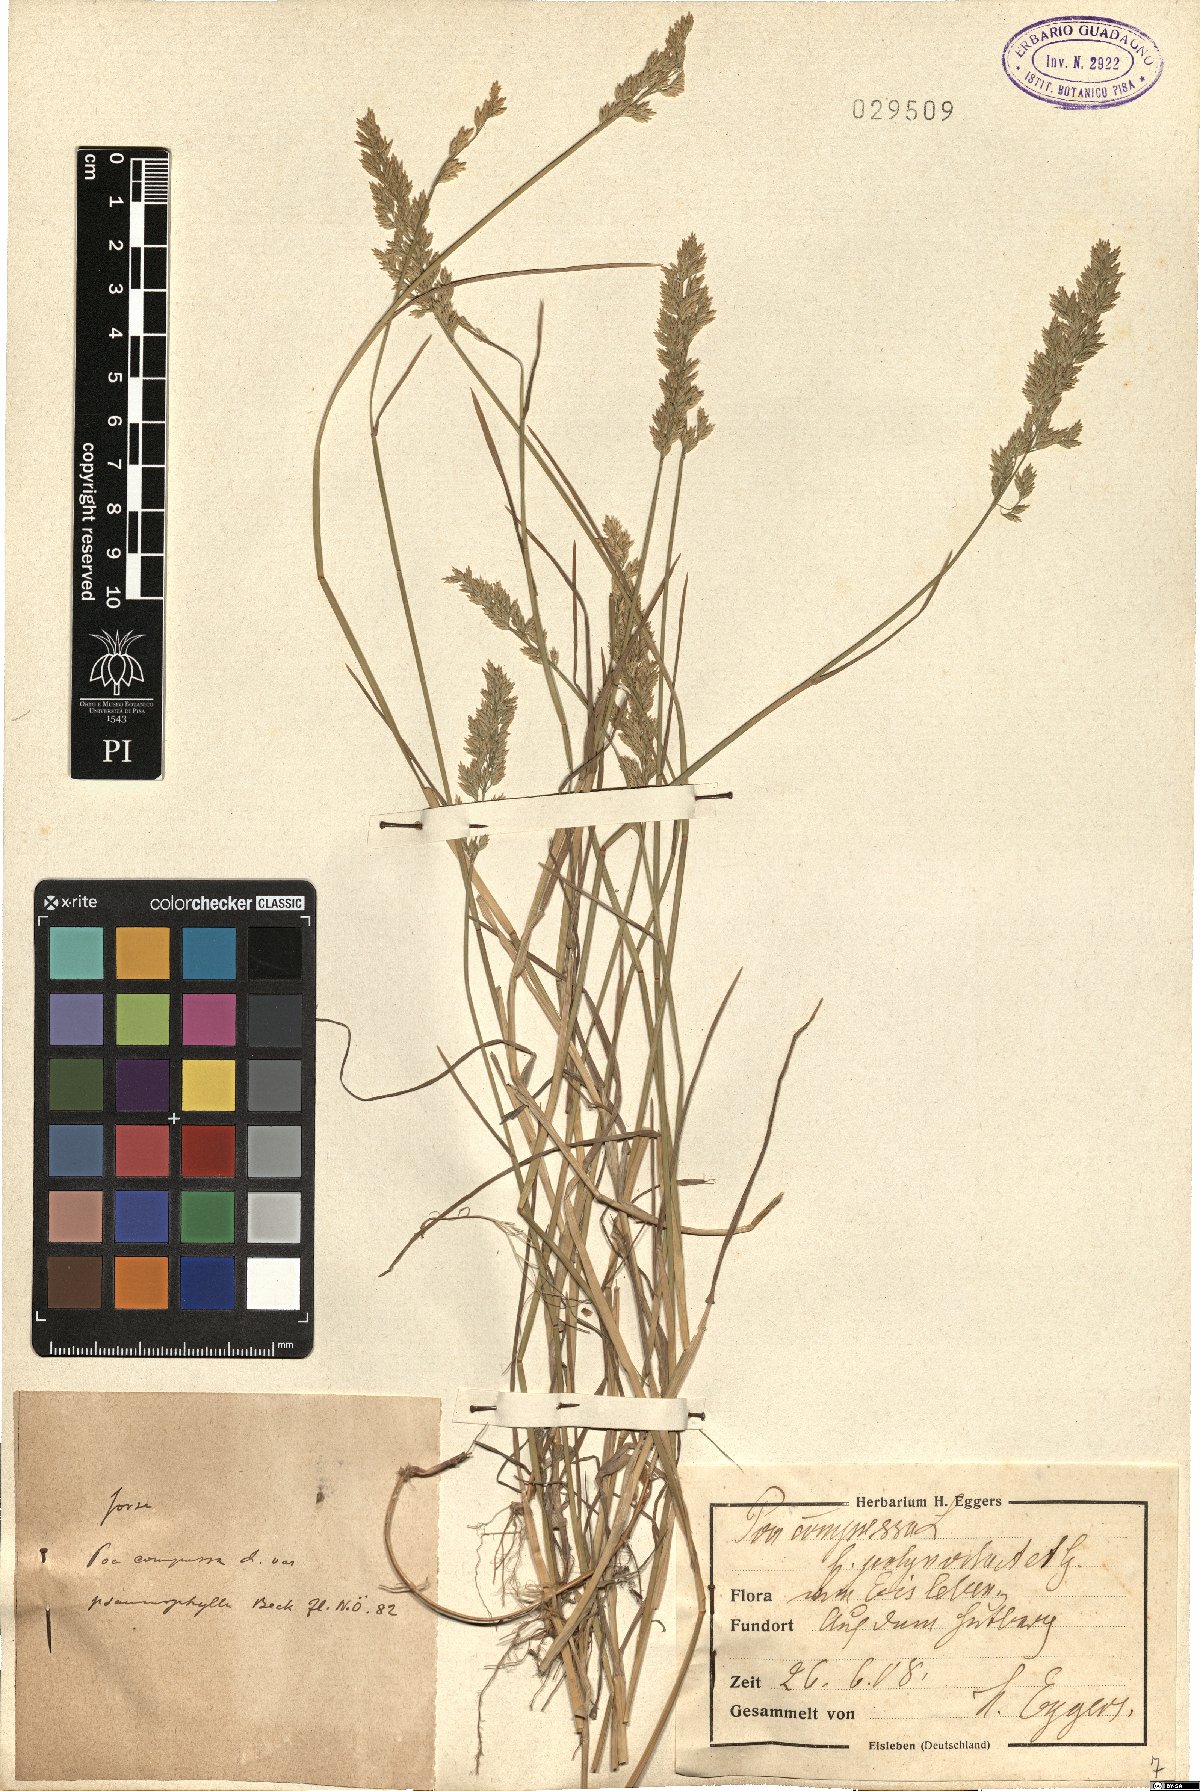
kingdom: Plantae
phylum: Tracheophyta
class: Liliopsida
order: Poales
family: Poaceae
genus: Poa
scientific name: Poa compressa
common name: Canada bluegrass
